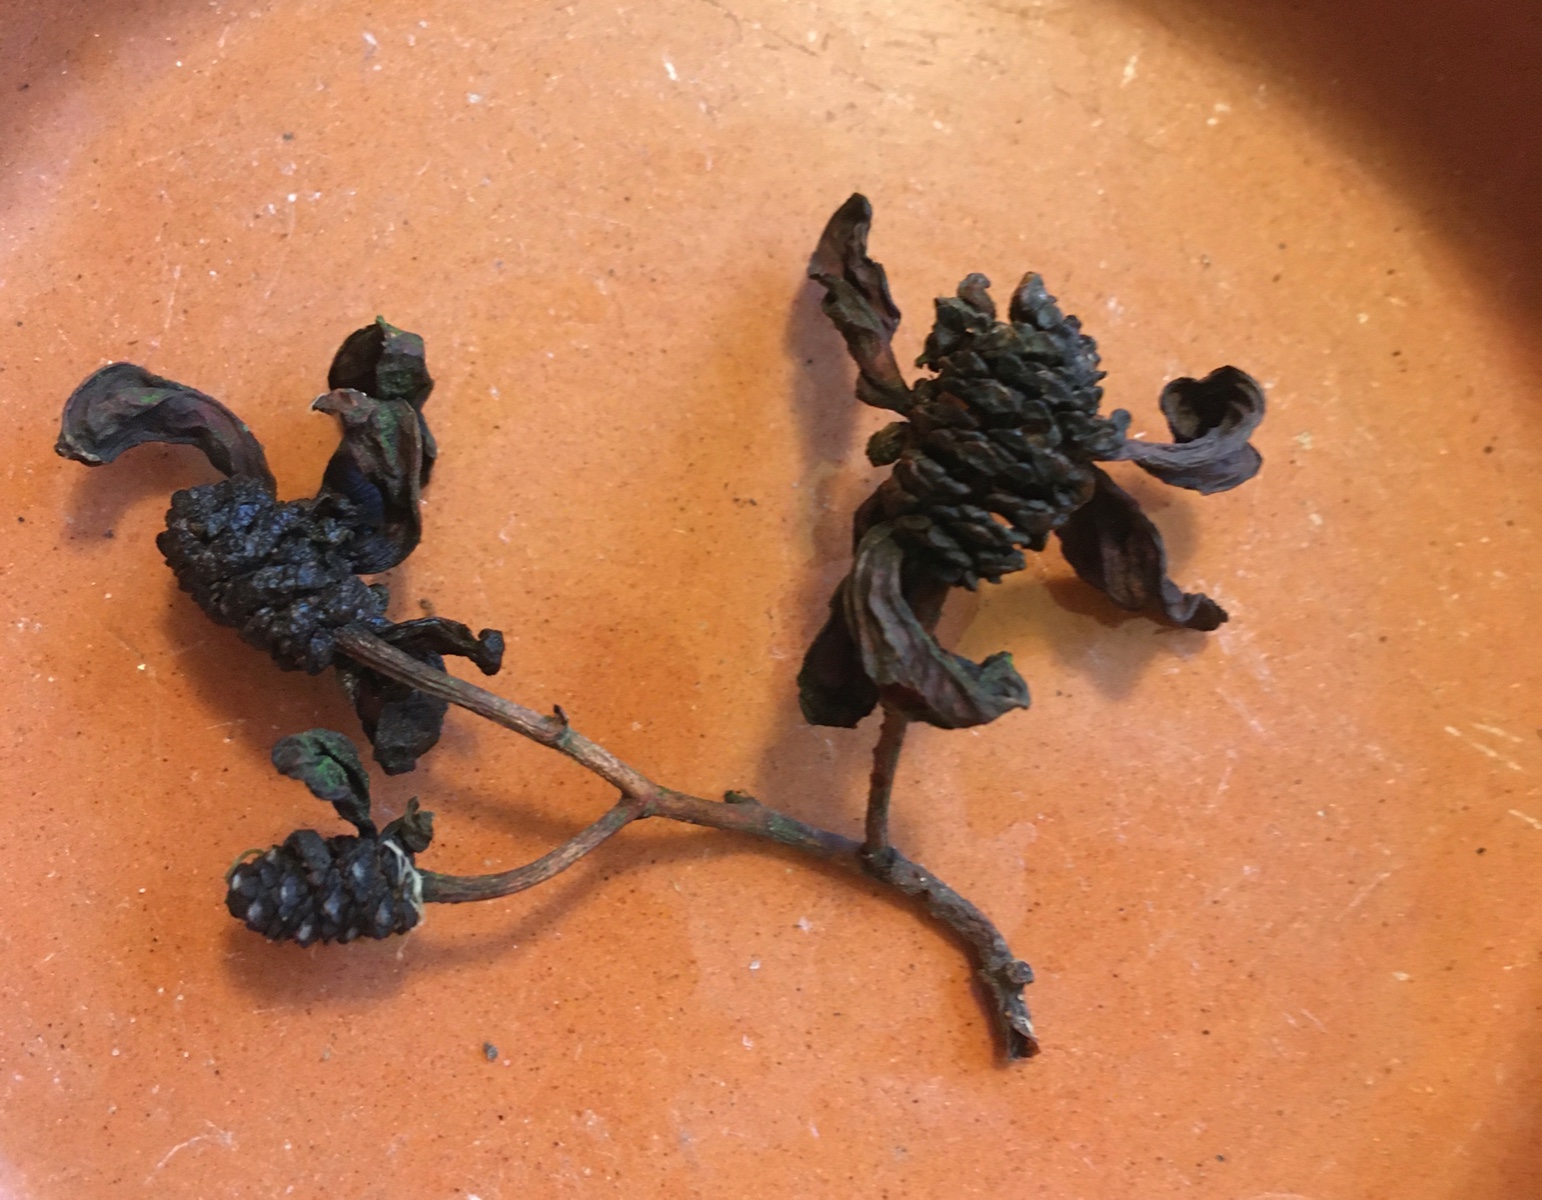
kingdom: Fungi
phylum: Ascomycota
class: Taphrinomycetes
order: Taphrinales
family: Taphrinaceae
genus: Taphrina
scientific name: Taphrina alni
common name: Alder tongue
